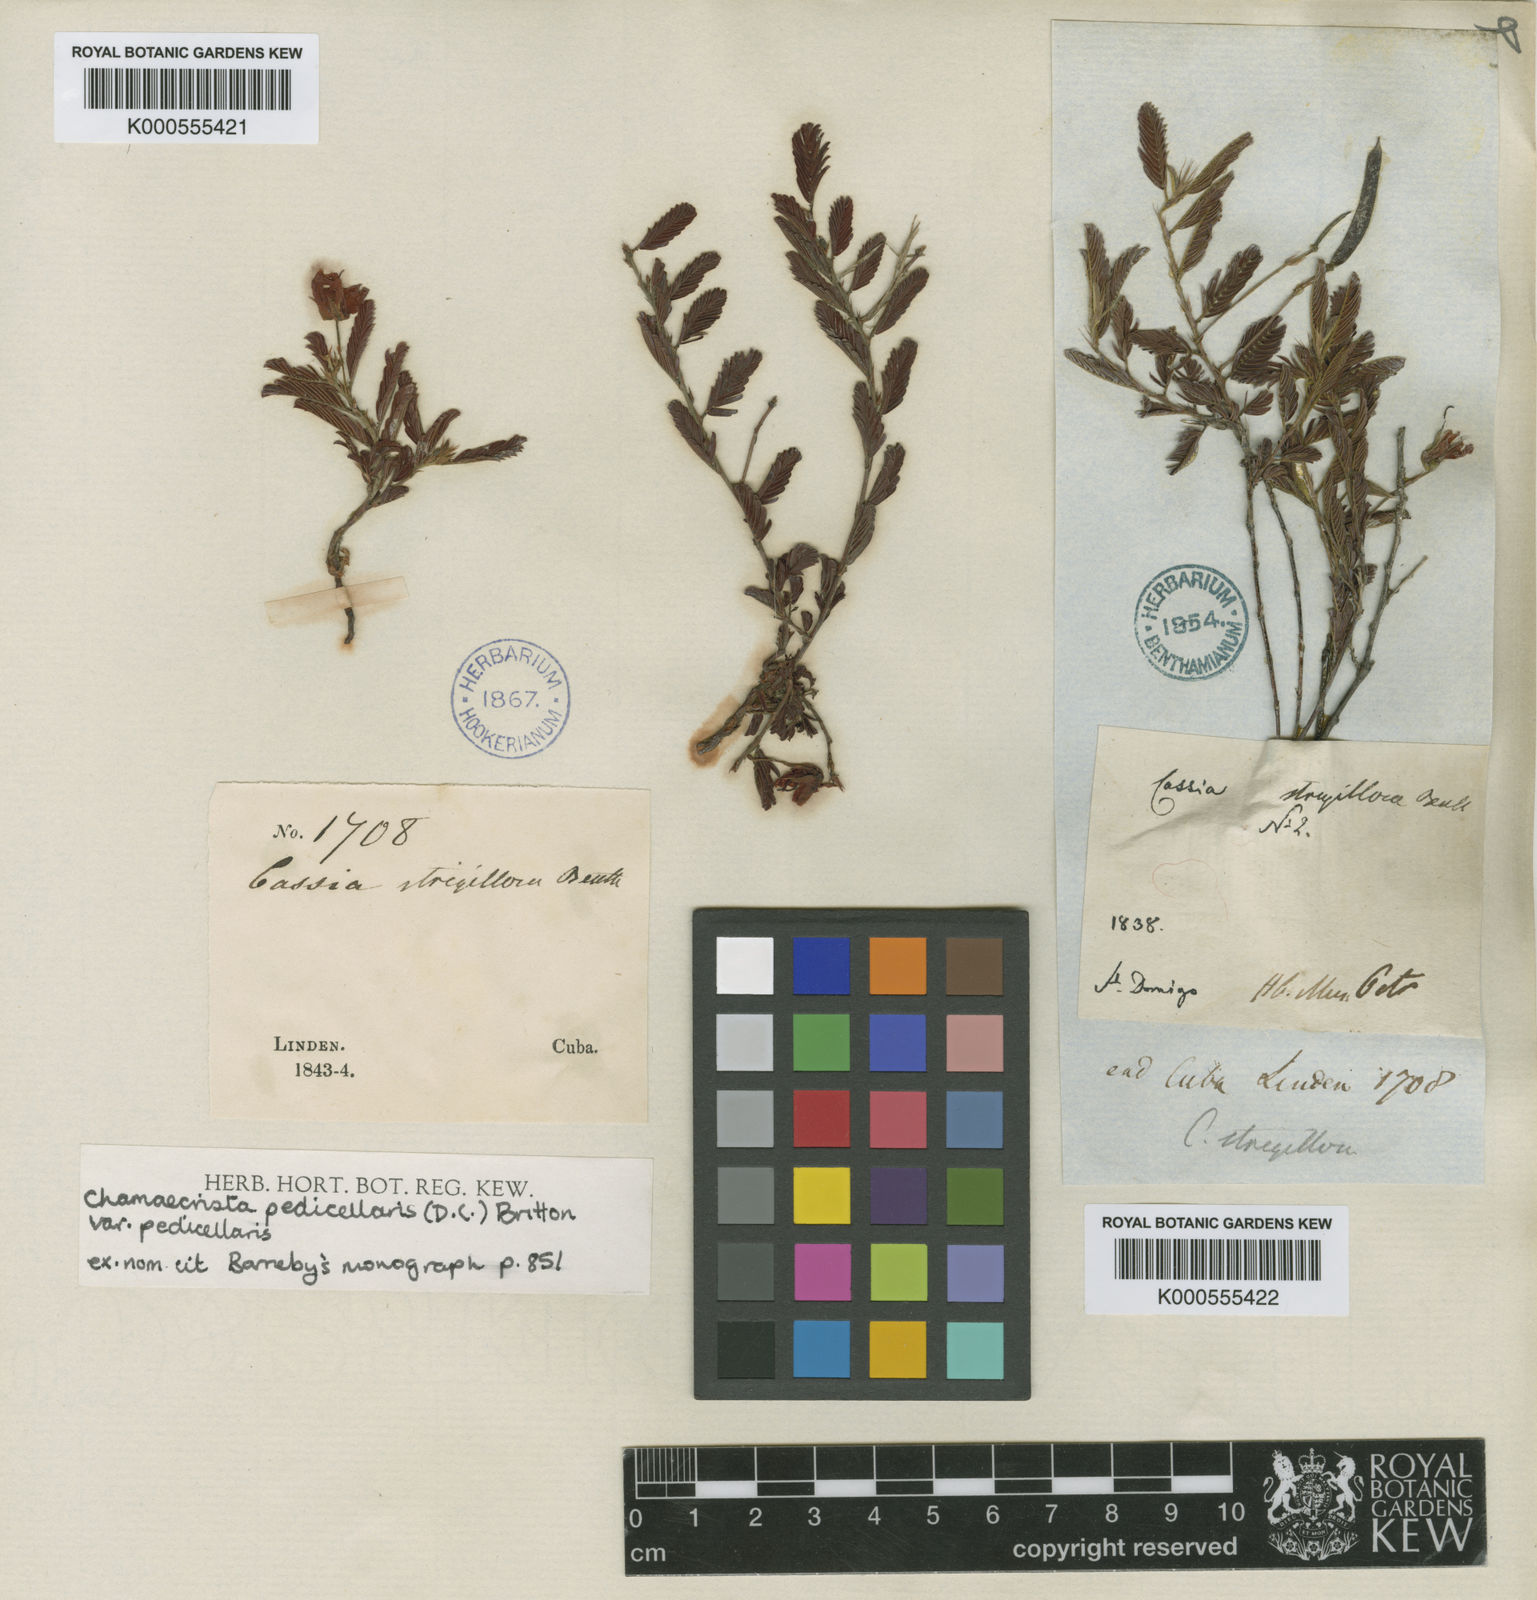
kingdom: Plantae
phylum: Tracheophyta
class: Magnoliopsida
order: Fabales
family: Fabaceae
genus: Chamaecrista
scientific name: Chamaecrista pedicellaris
